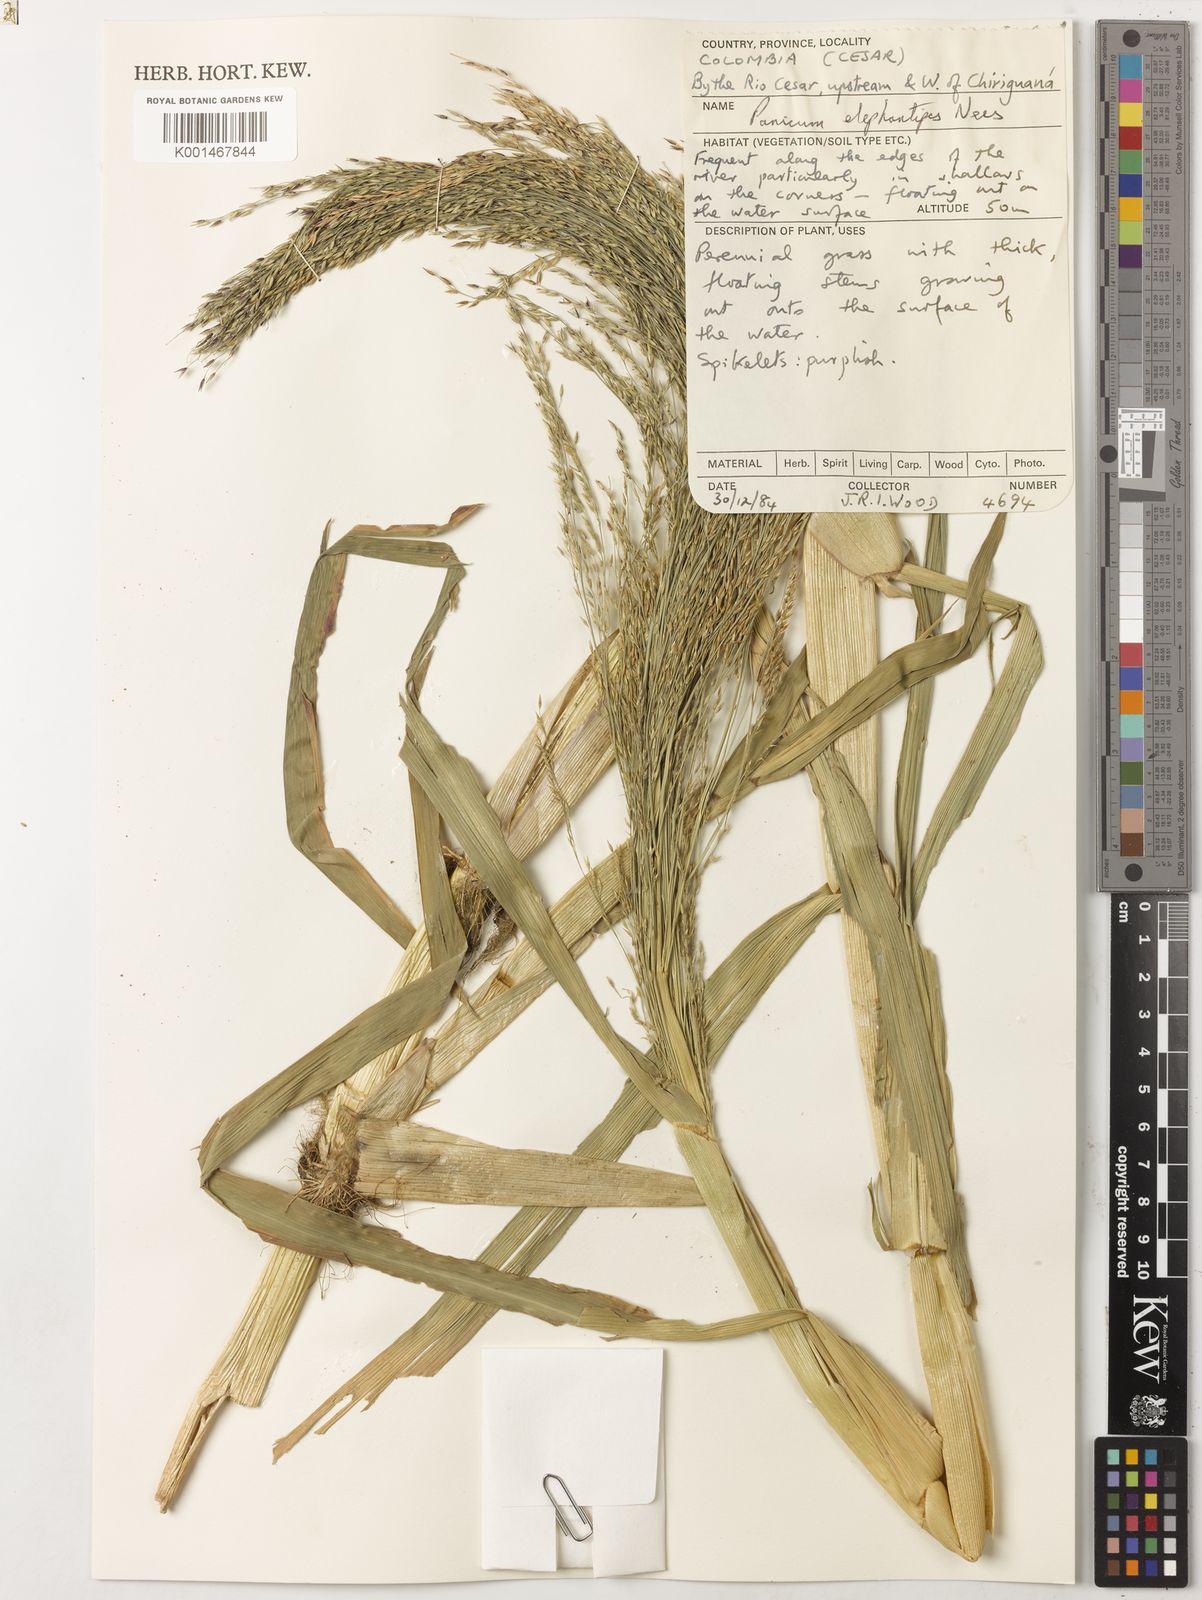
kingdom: Plantae
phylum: Tracheophyta
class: Liliopsida
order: Poales
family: Poaceae
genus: Louisiella
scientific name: Louisiella elephantipes
